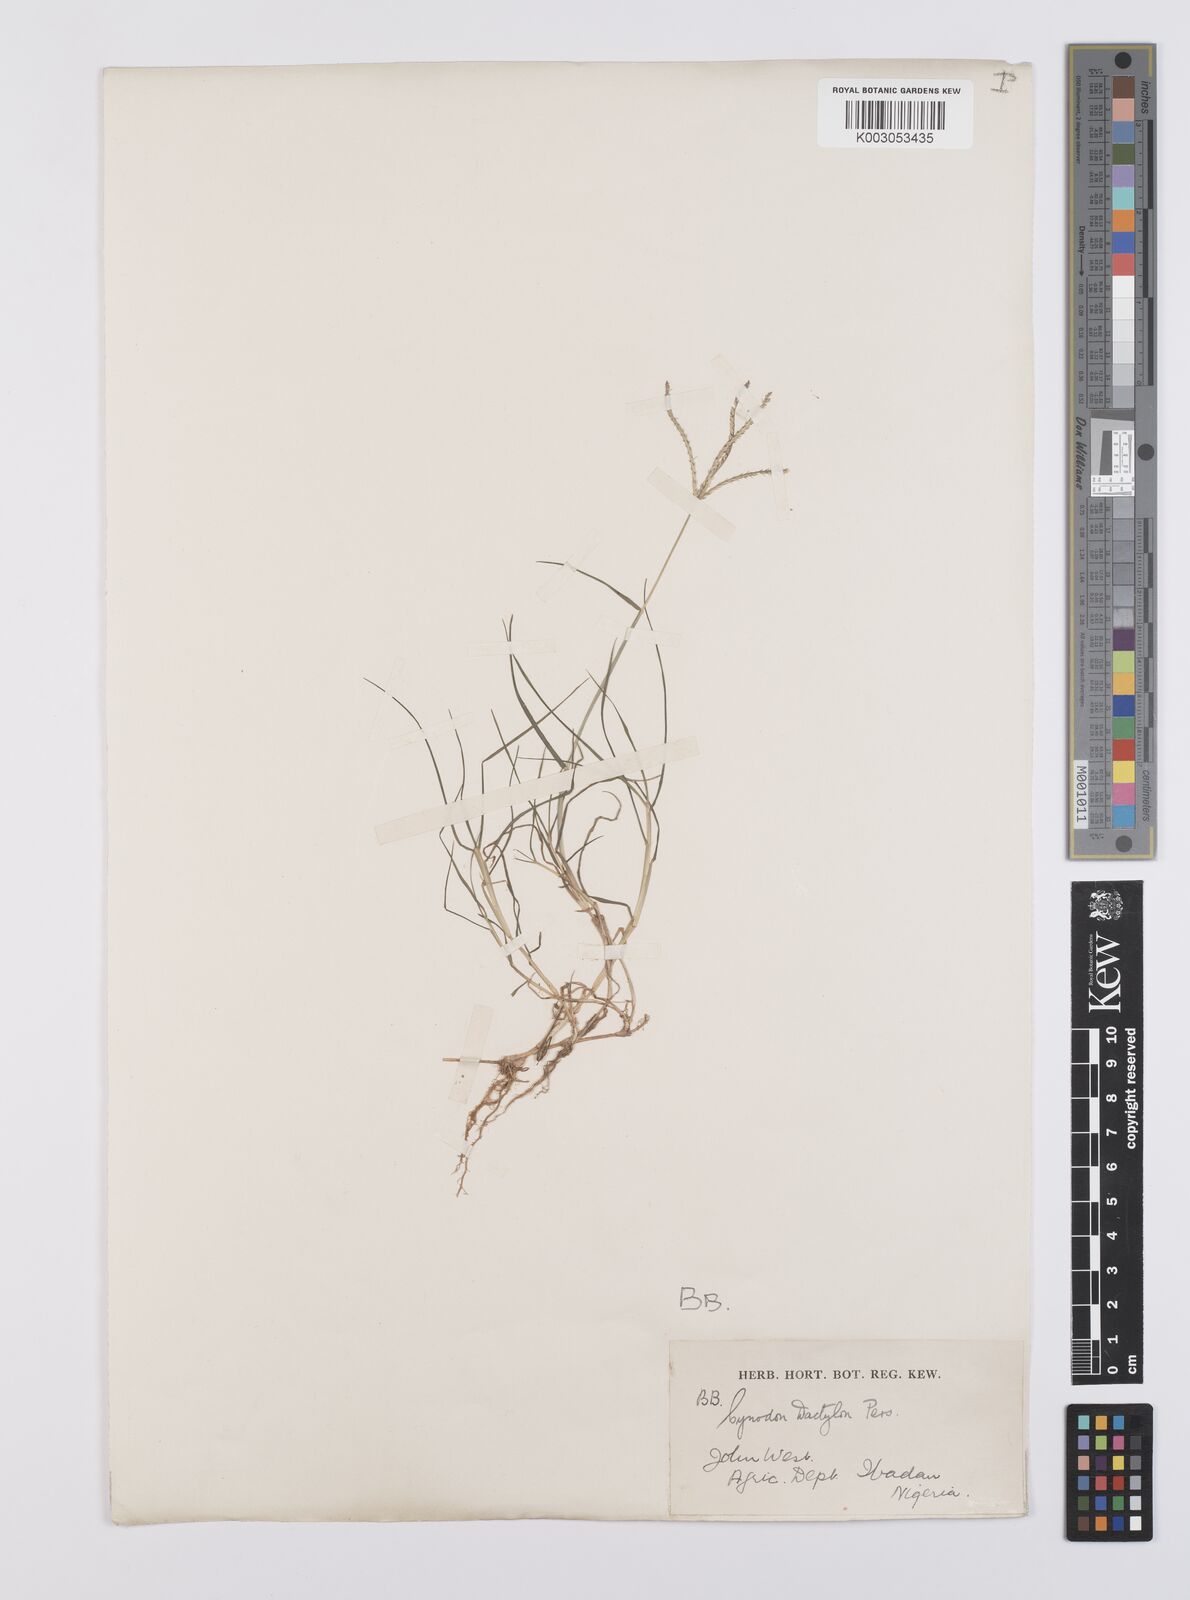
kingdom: Plantae
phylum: Tracheophyta
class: Liliopsida
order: Poales
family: Poaceae
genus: Cynodon
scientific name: Cynodon dactylon
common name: Bermuda grass
